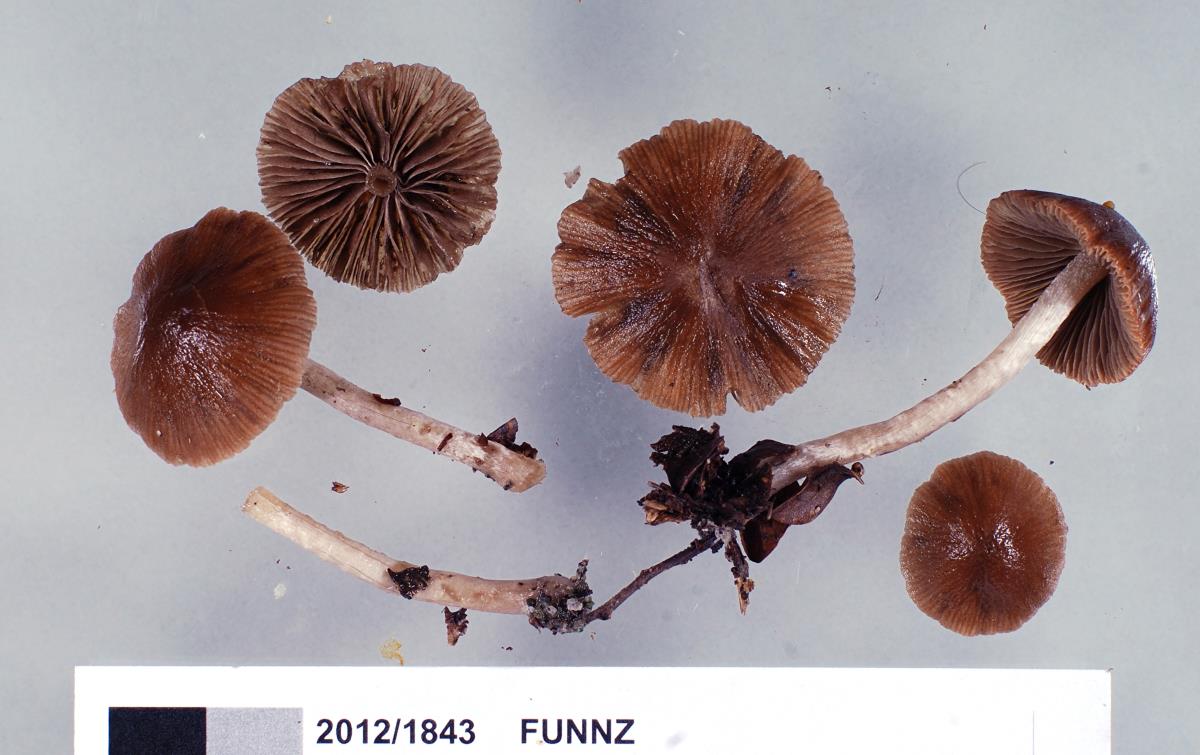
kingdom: Fungi
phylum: Basidiomycota
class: Agaricomycetes
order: Agaricales
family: Psathyrellaceae
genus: Psathyrella
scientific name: Psathyrella
